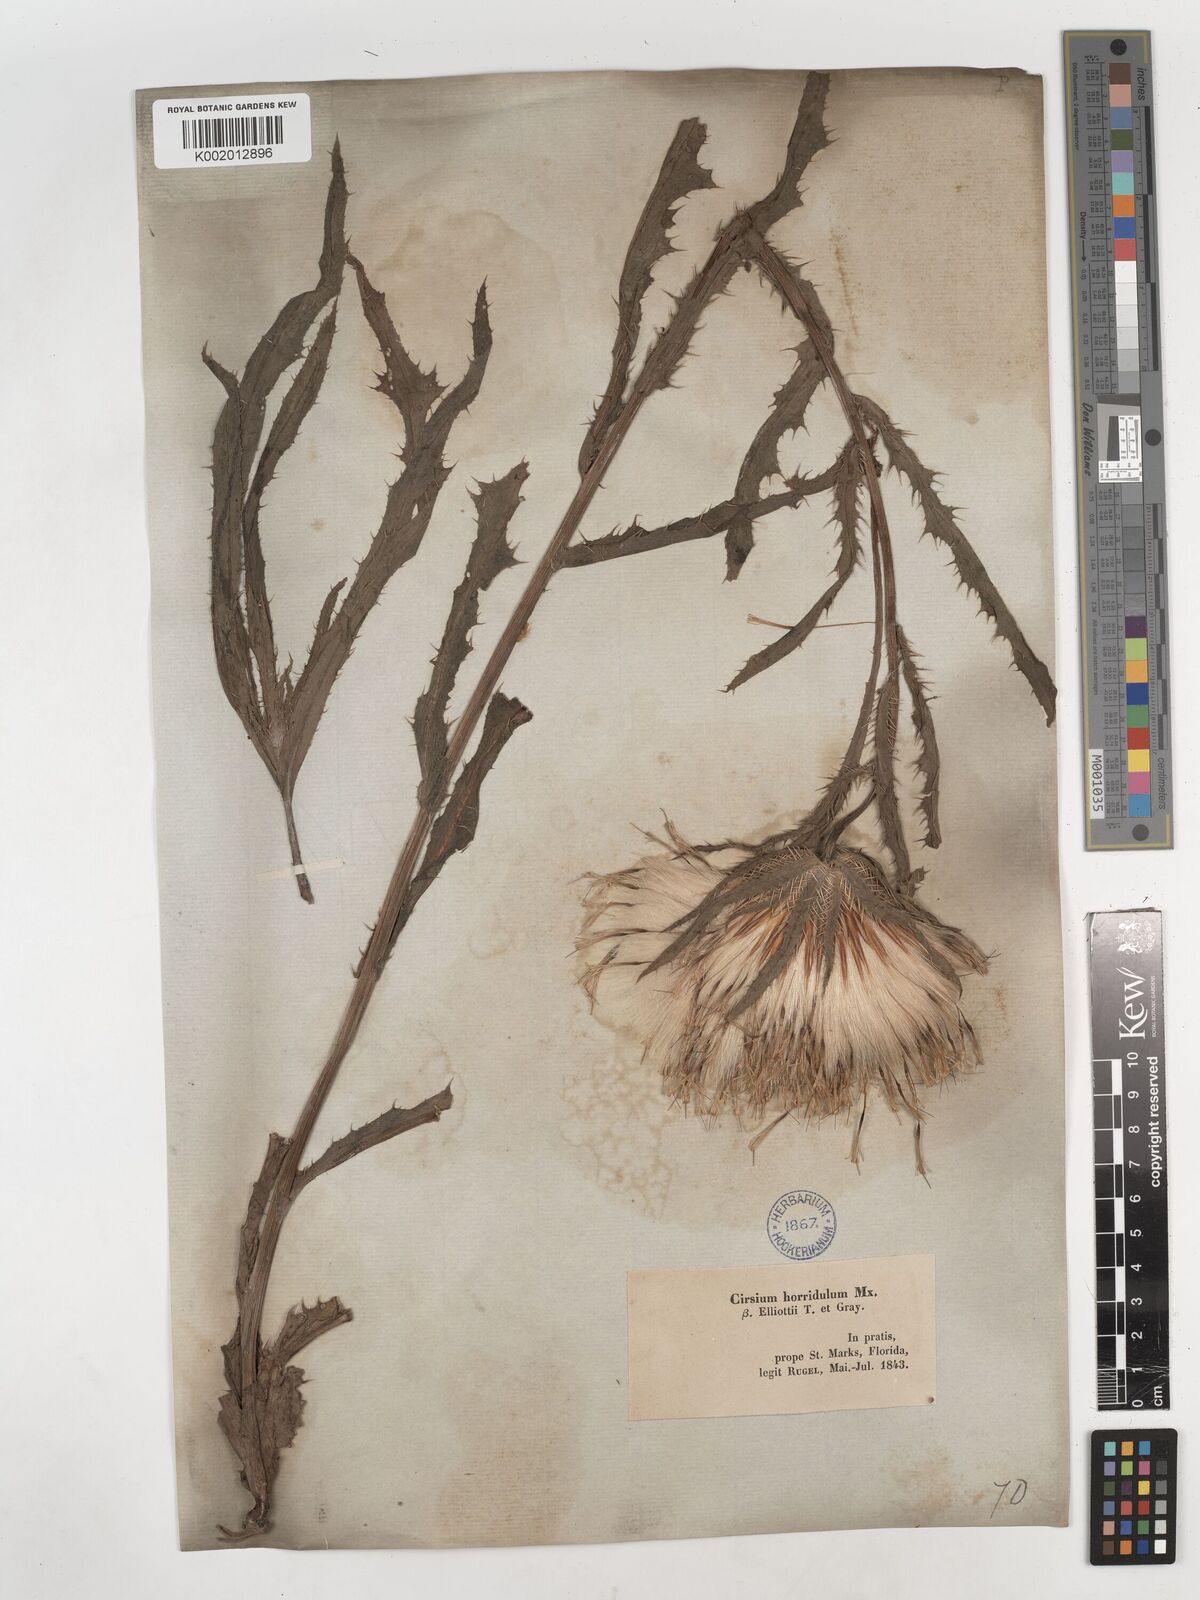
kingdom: Plantae
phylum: Tracheophyta
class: Magnoliopsida
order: Asterales
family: Asteraceae
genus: Cirsium
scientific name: Cirsium horridulum
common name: Bristly thistle
